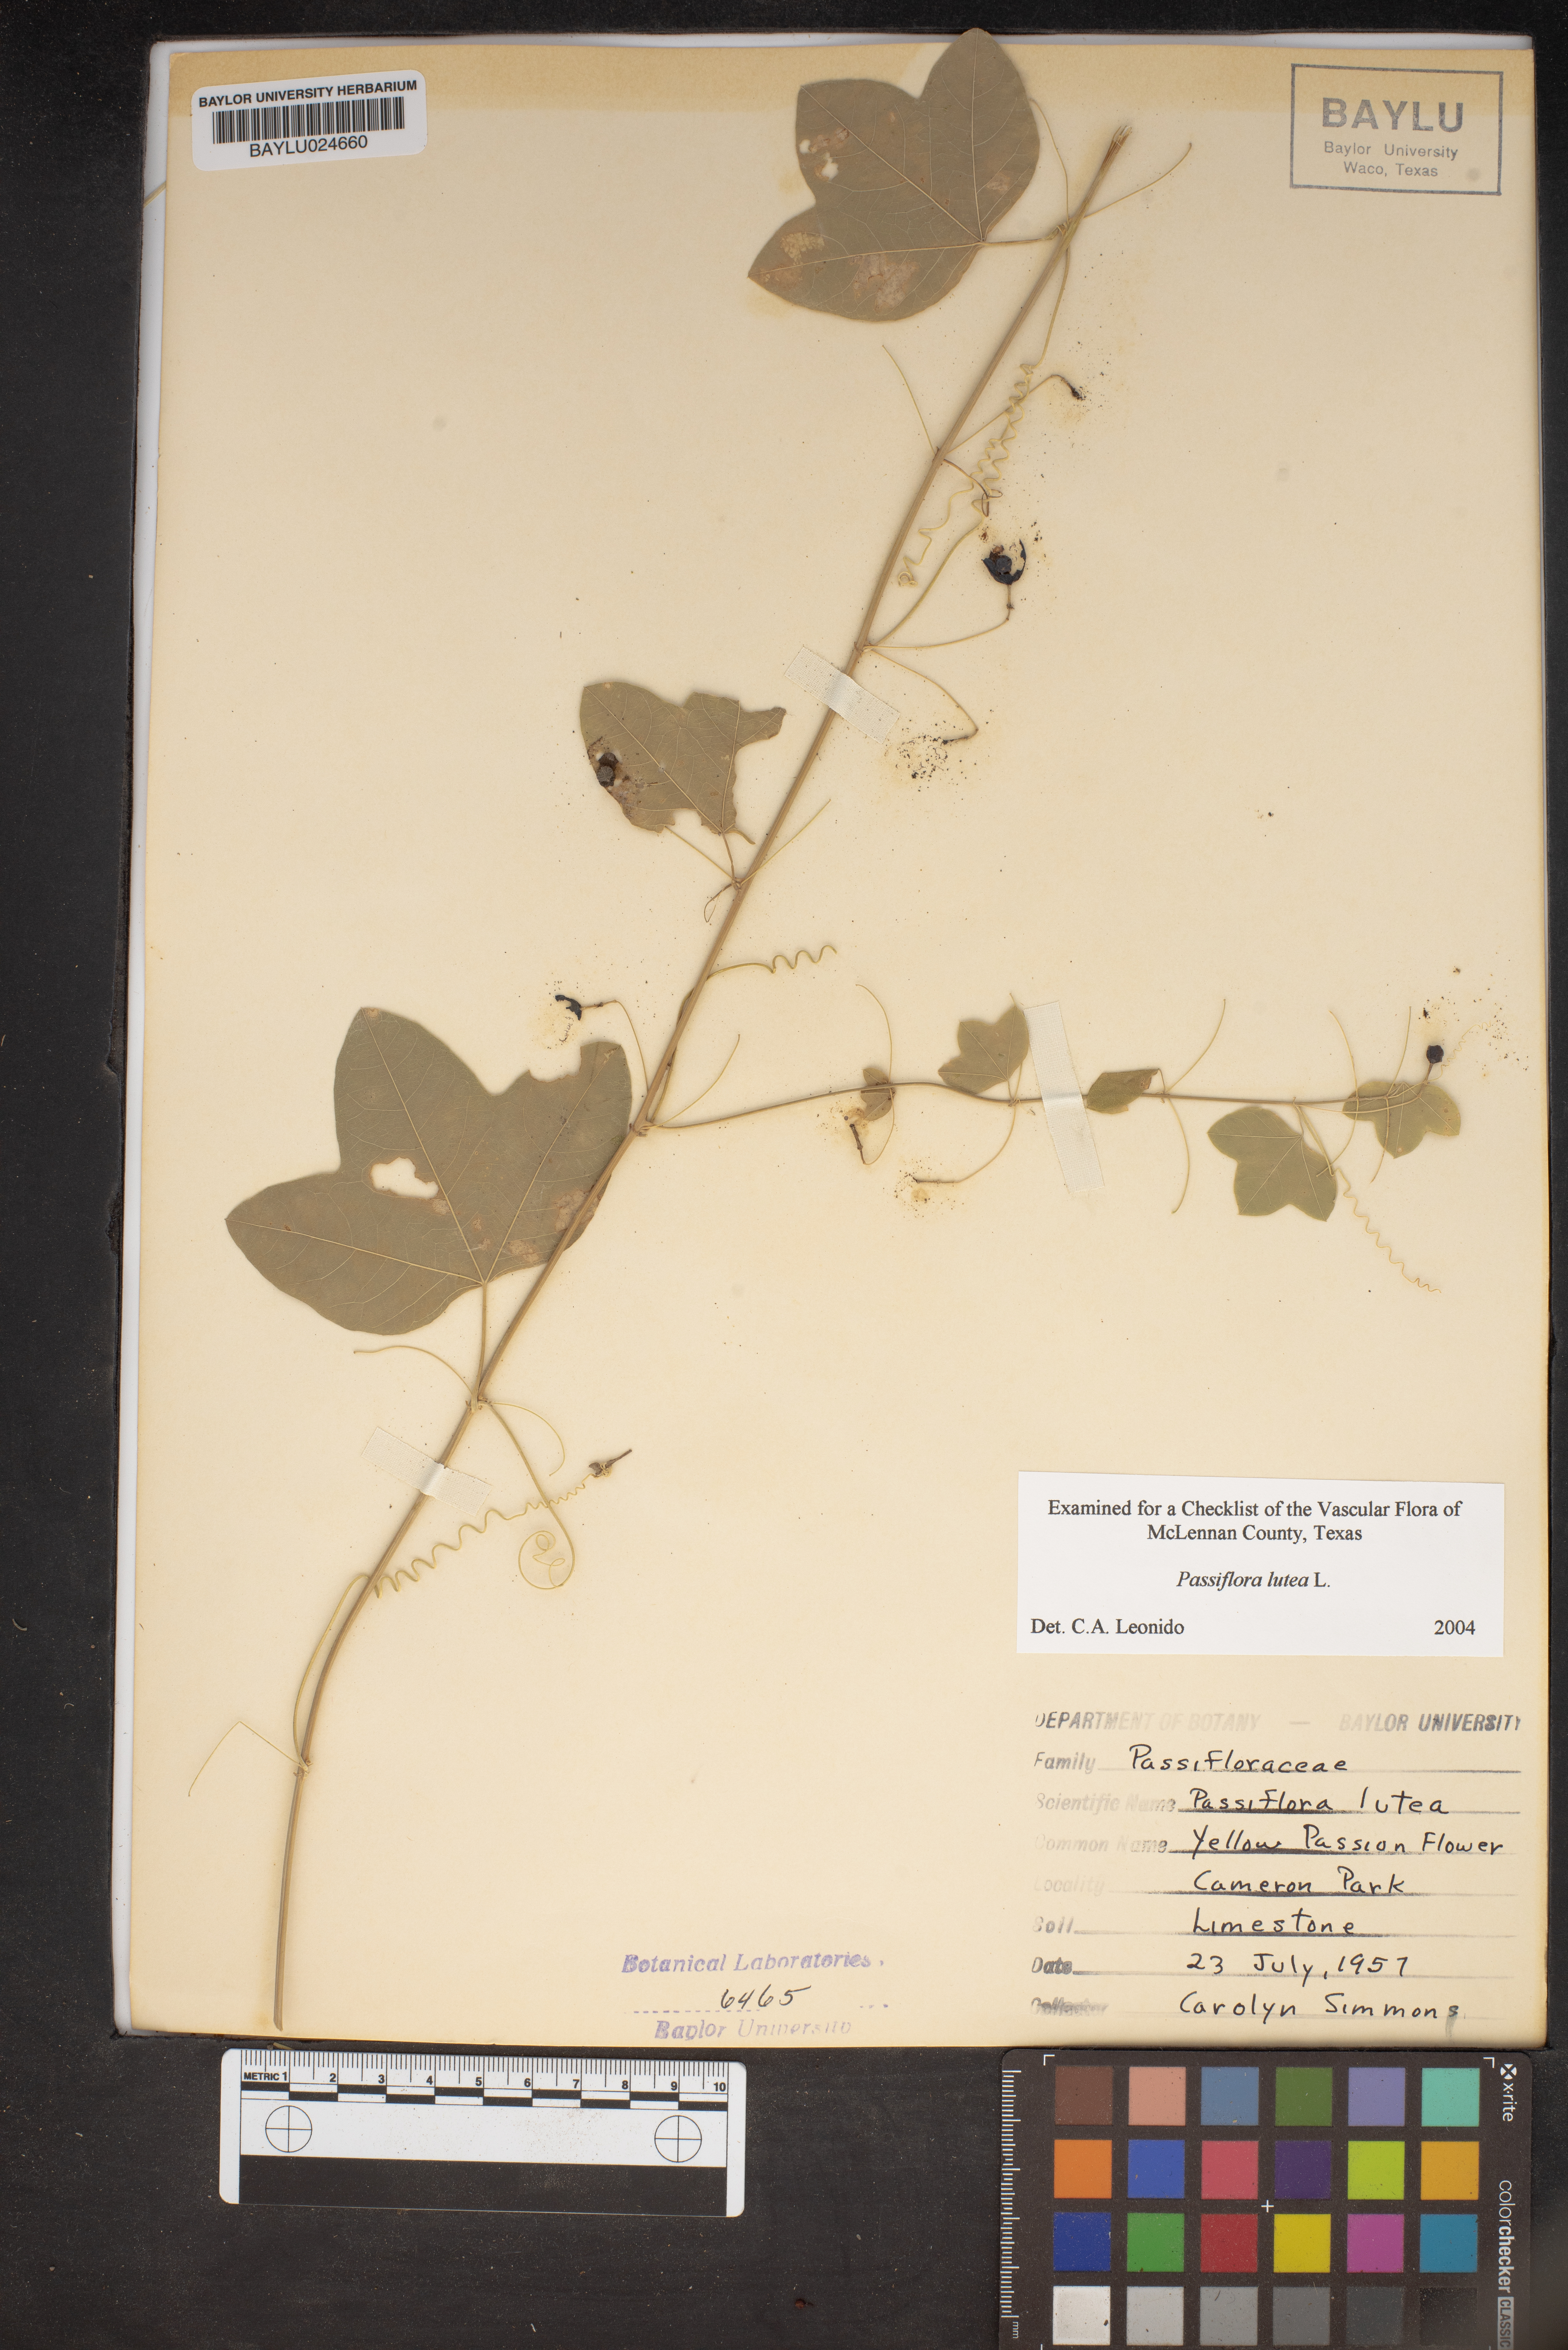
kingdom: Plantae
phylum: Tracheophyta
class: Magnoliopsida
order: Malpighiales
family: Passifloraceae
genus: Passiflora
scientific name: Passiflora lutea
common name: Yellow passionflower
